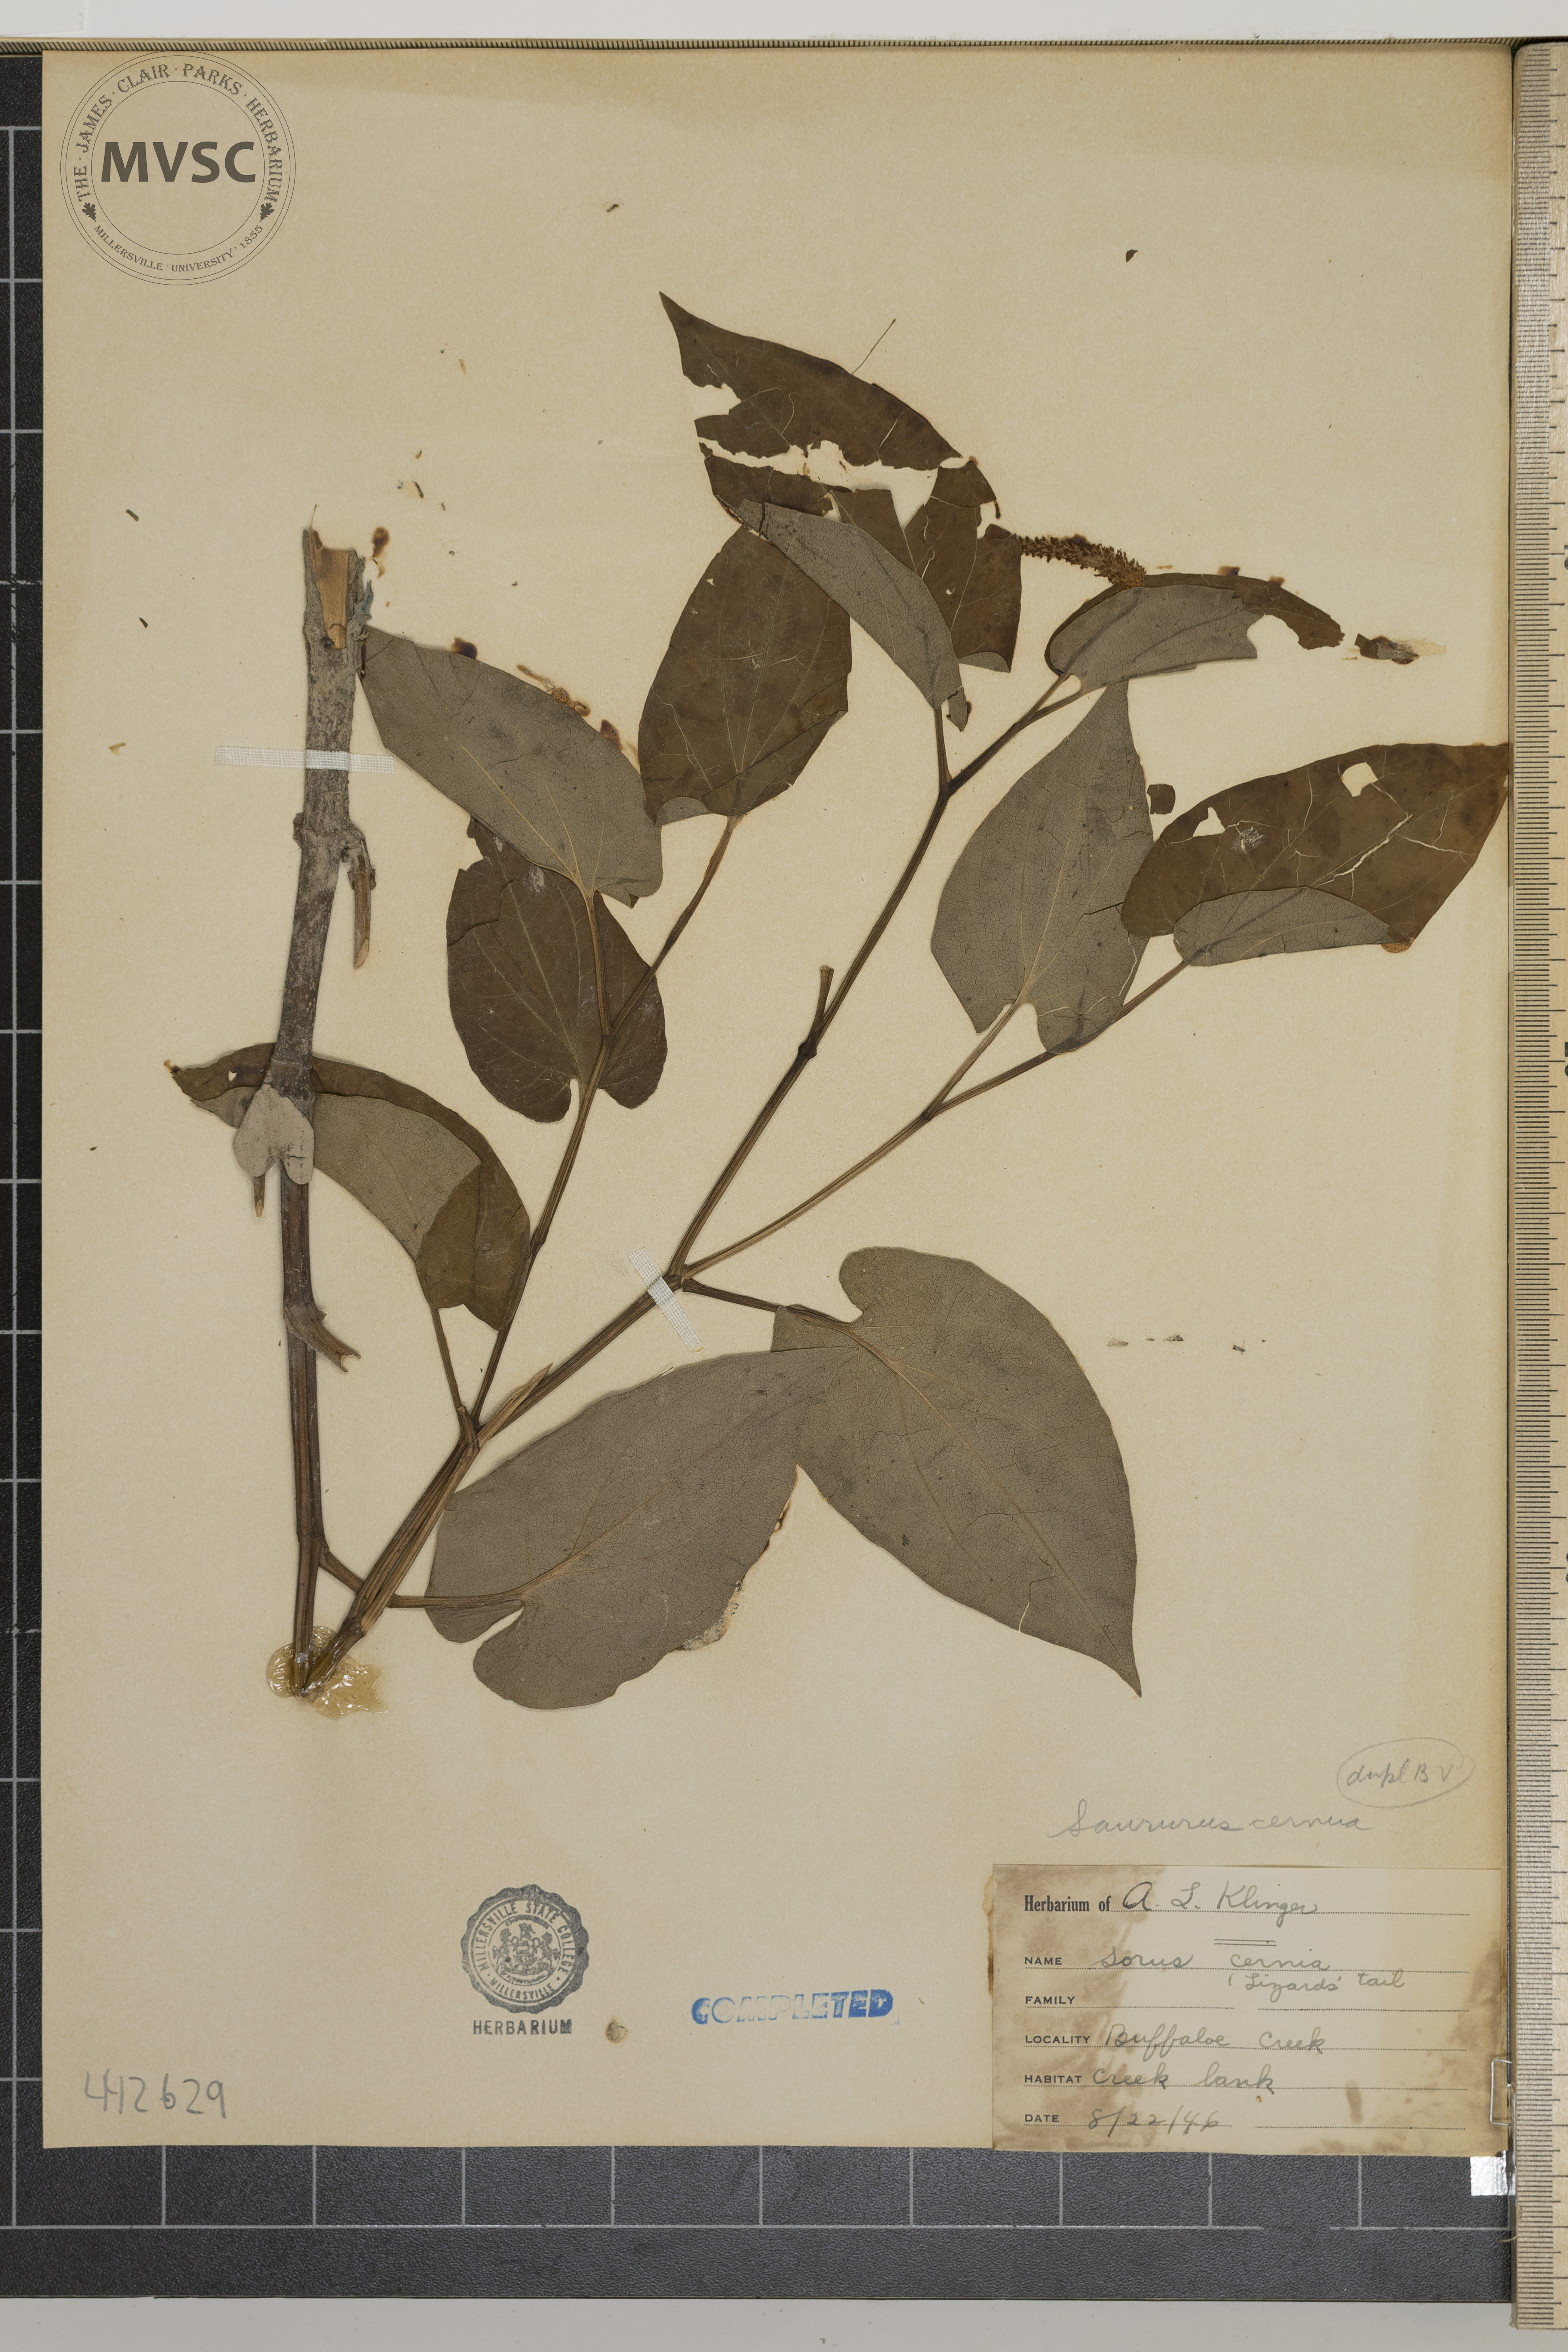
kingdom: Plantae
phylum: Tracheophyta
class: Magnoliopsida
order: Piperales
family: Saururaceae
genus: Saururus
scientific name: Saururus cernuus
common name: Lizard's tail
